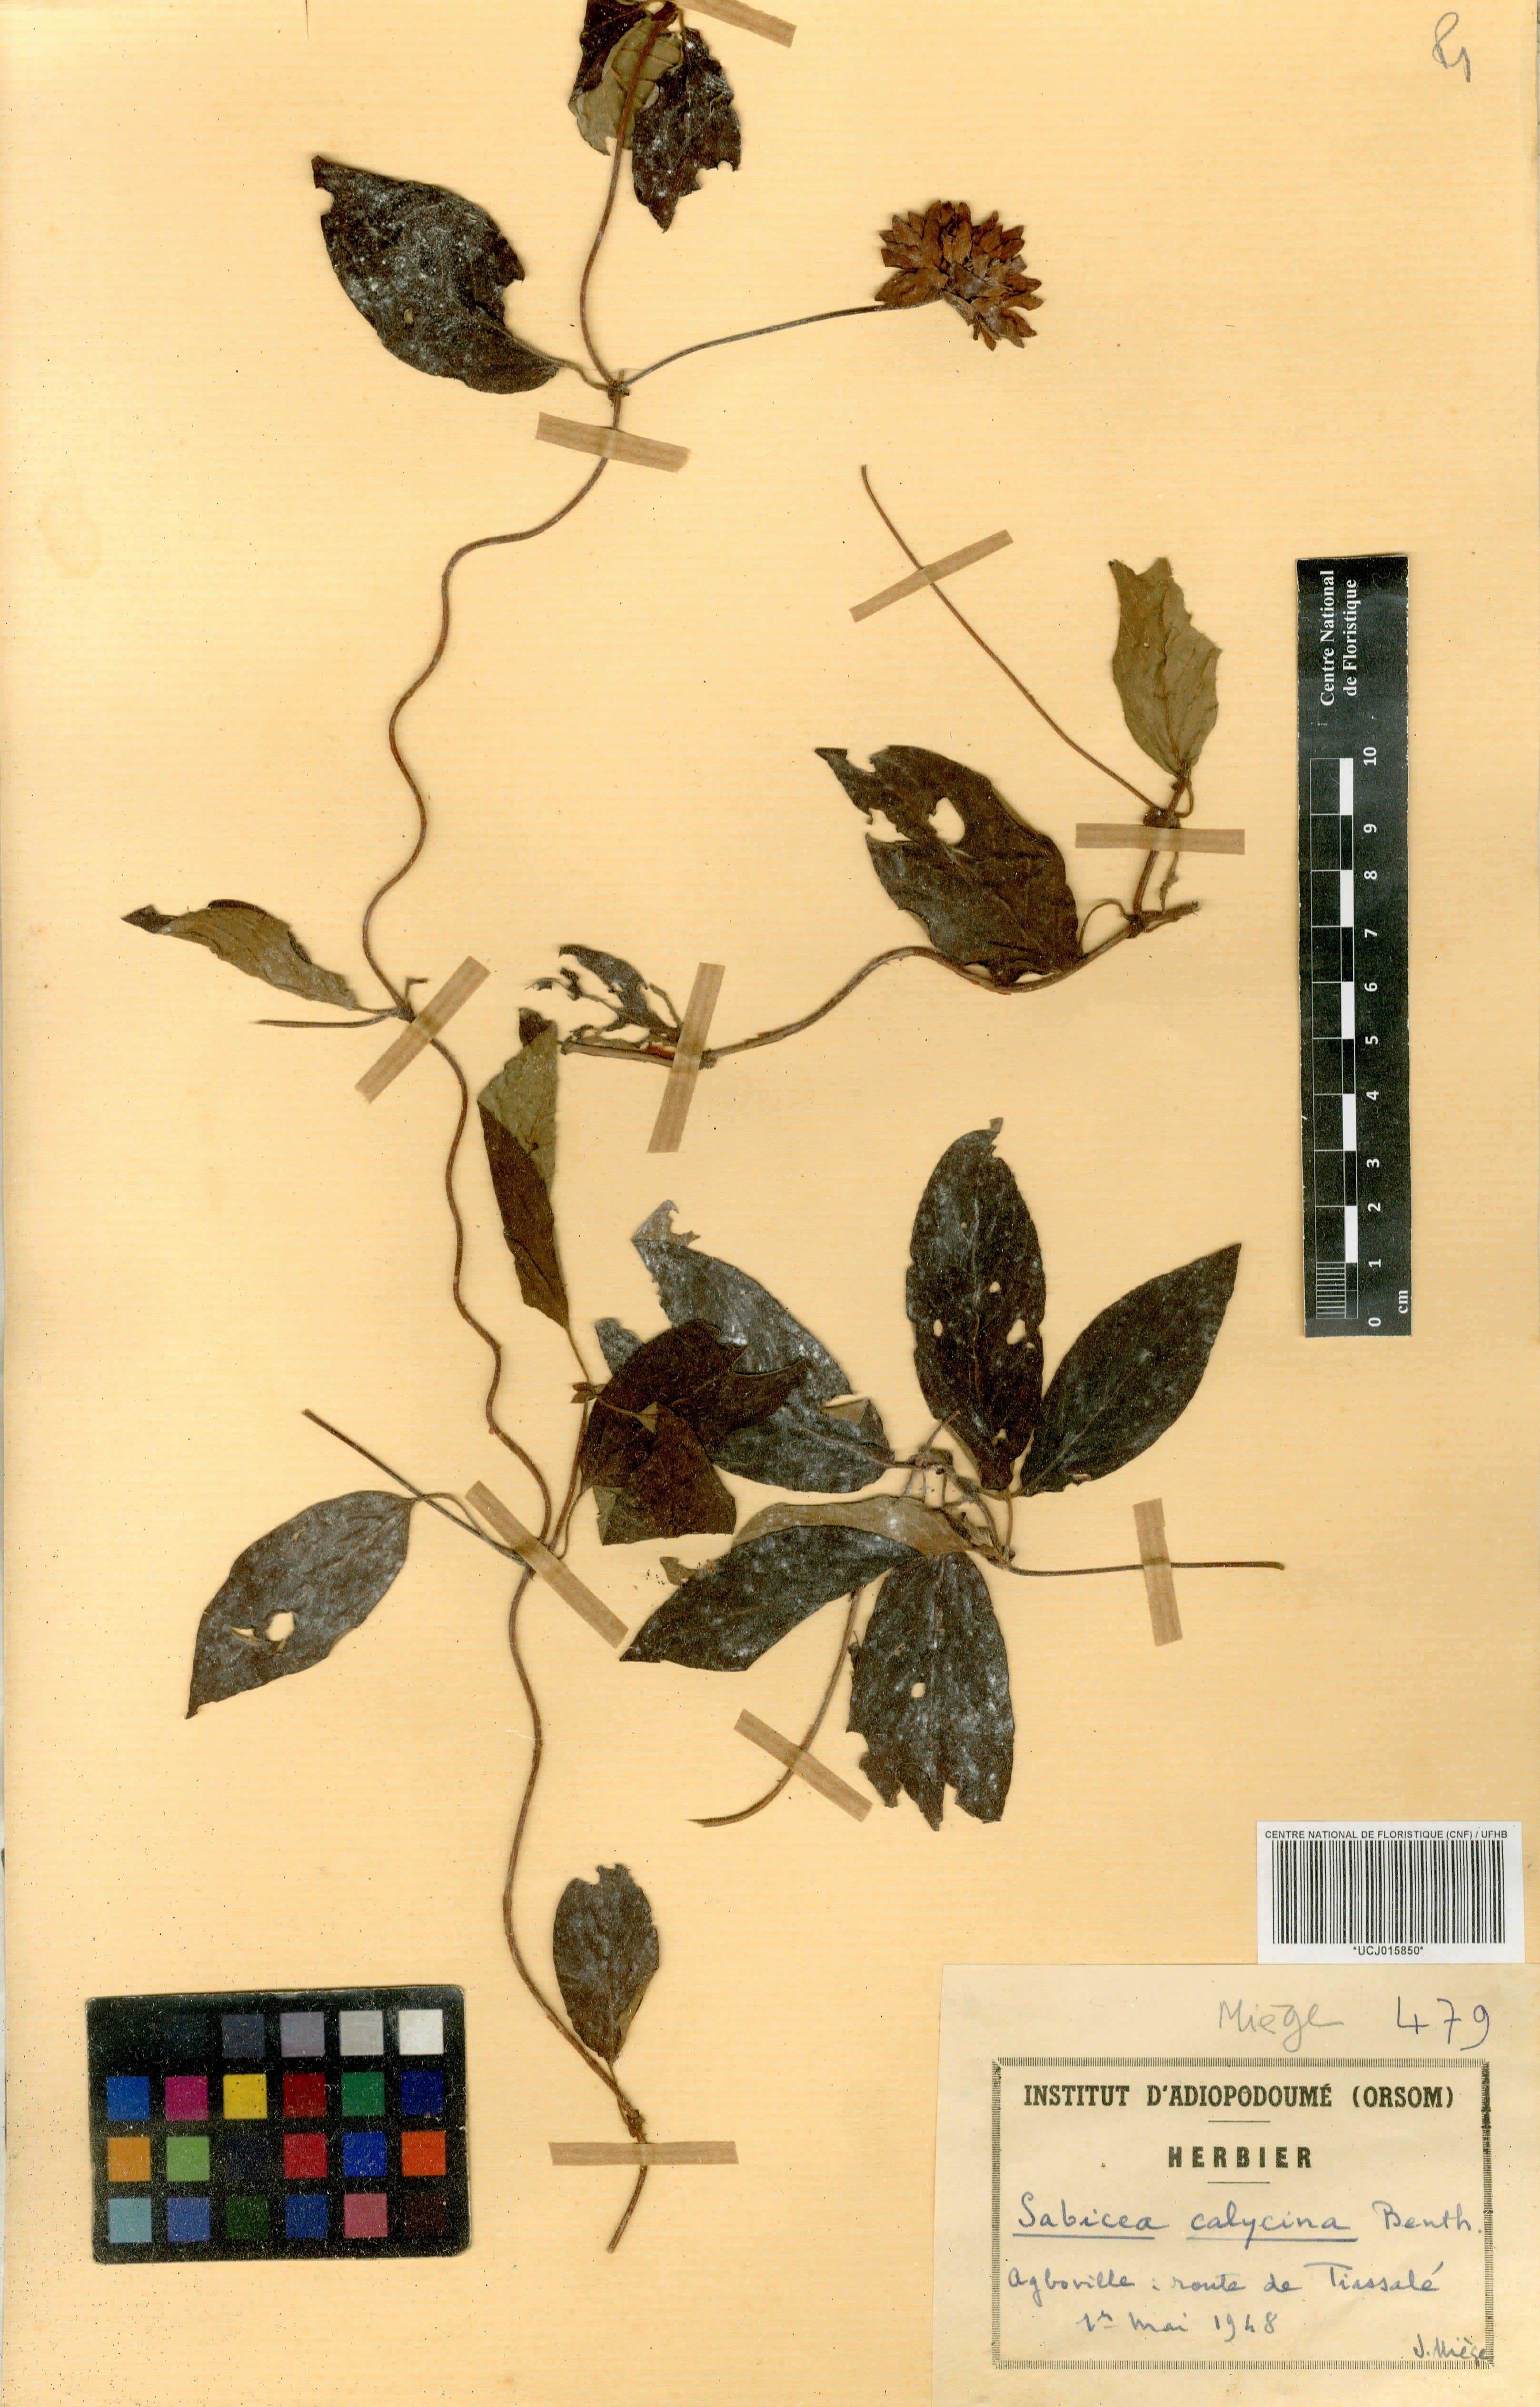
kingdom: Plantae
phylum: Tracheophyta
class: Magnoliopsida
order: Gentianales
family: Rubiaceae
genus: Sabicea
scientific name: Sabicea calycina
